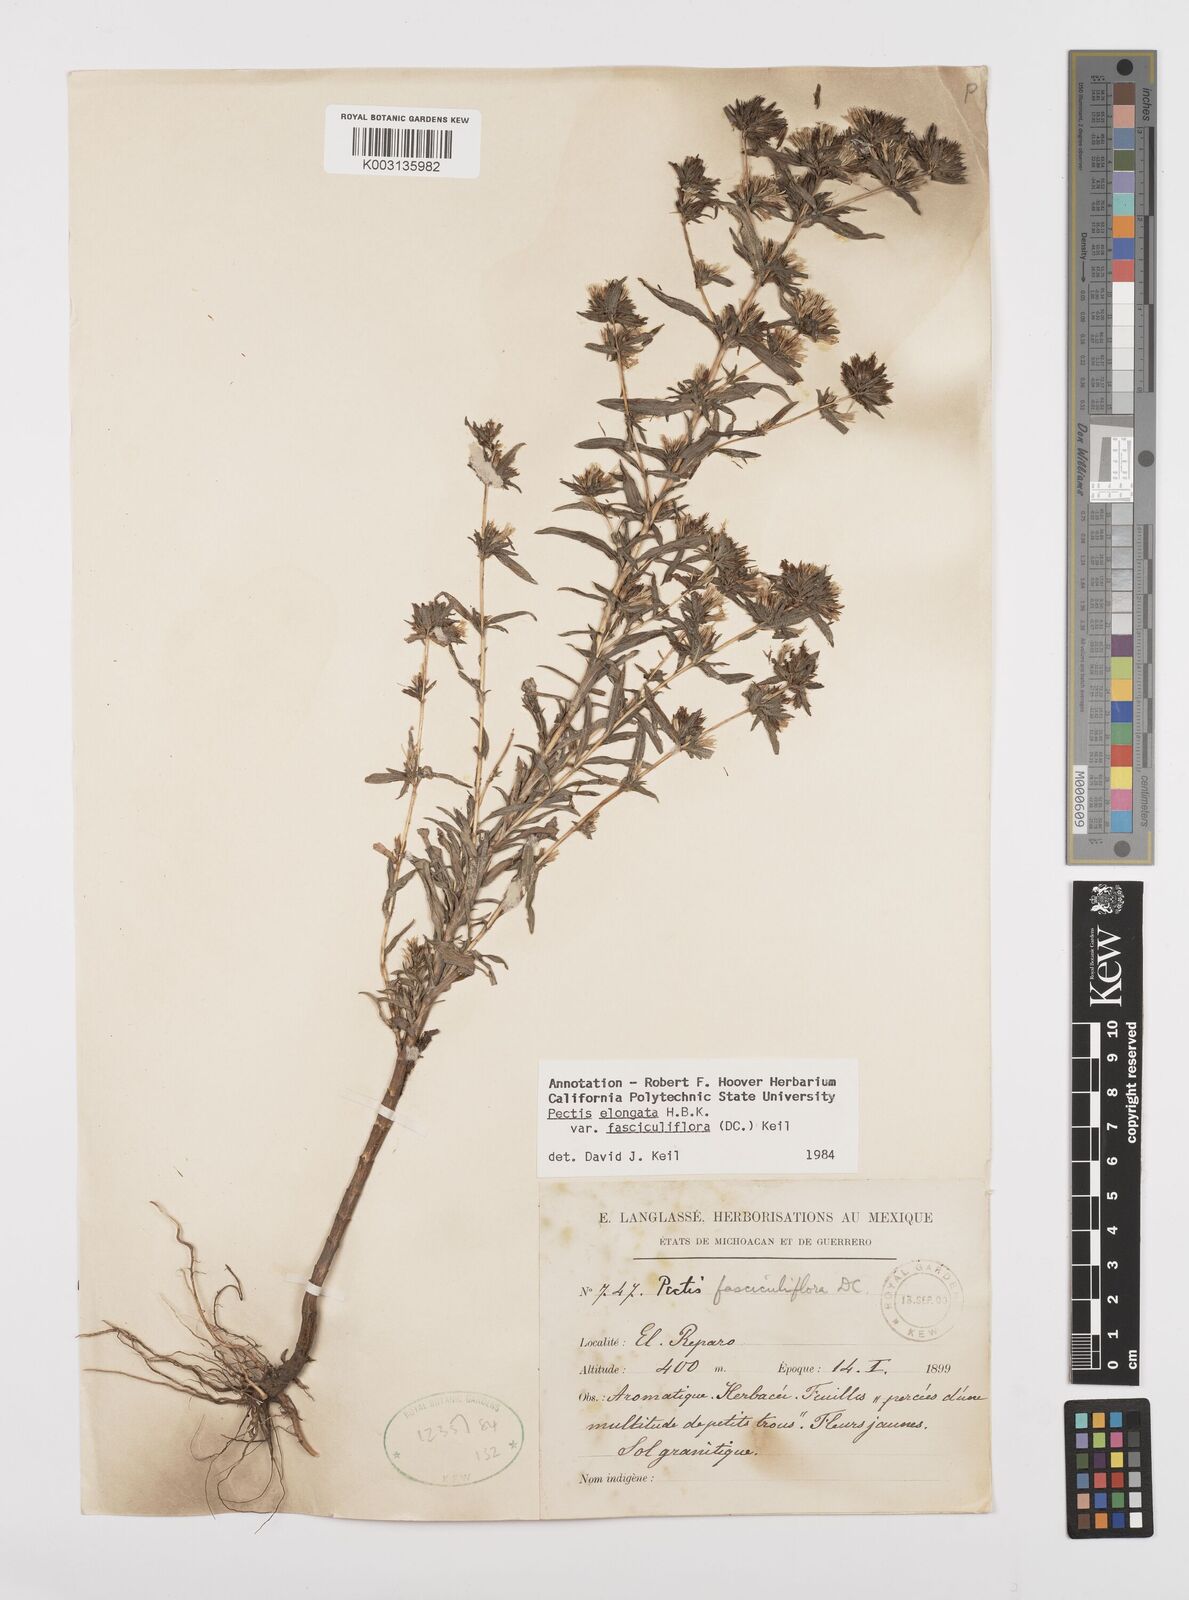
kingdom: Plantae
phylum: Tracheophyta
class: Magnoliopsida
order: Asterales
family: Asteraceae
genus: Pectis
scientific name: Pectis elongata
